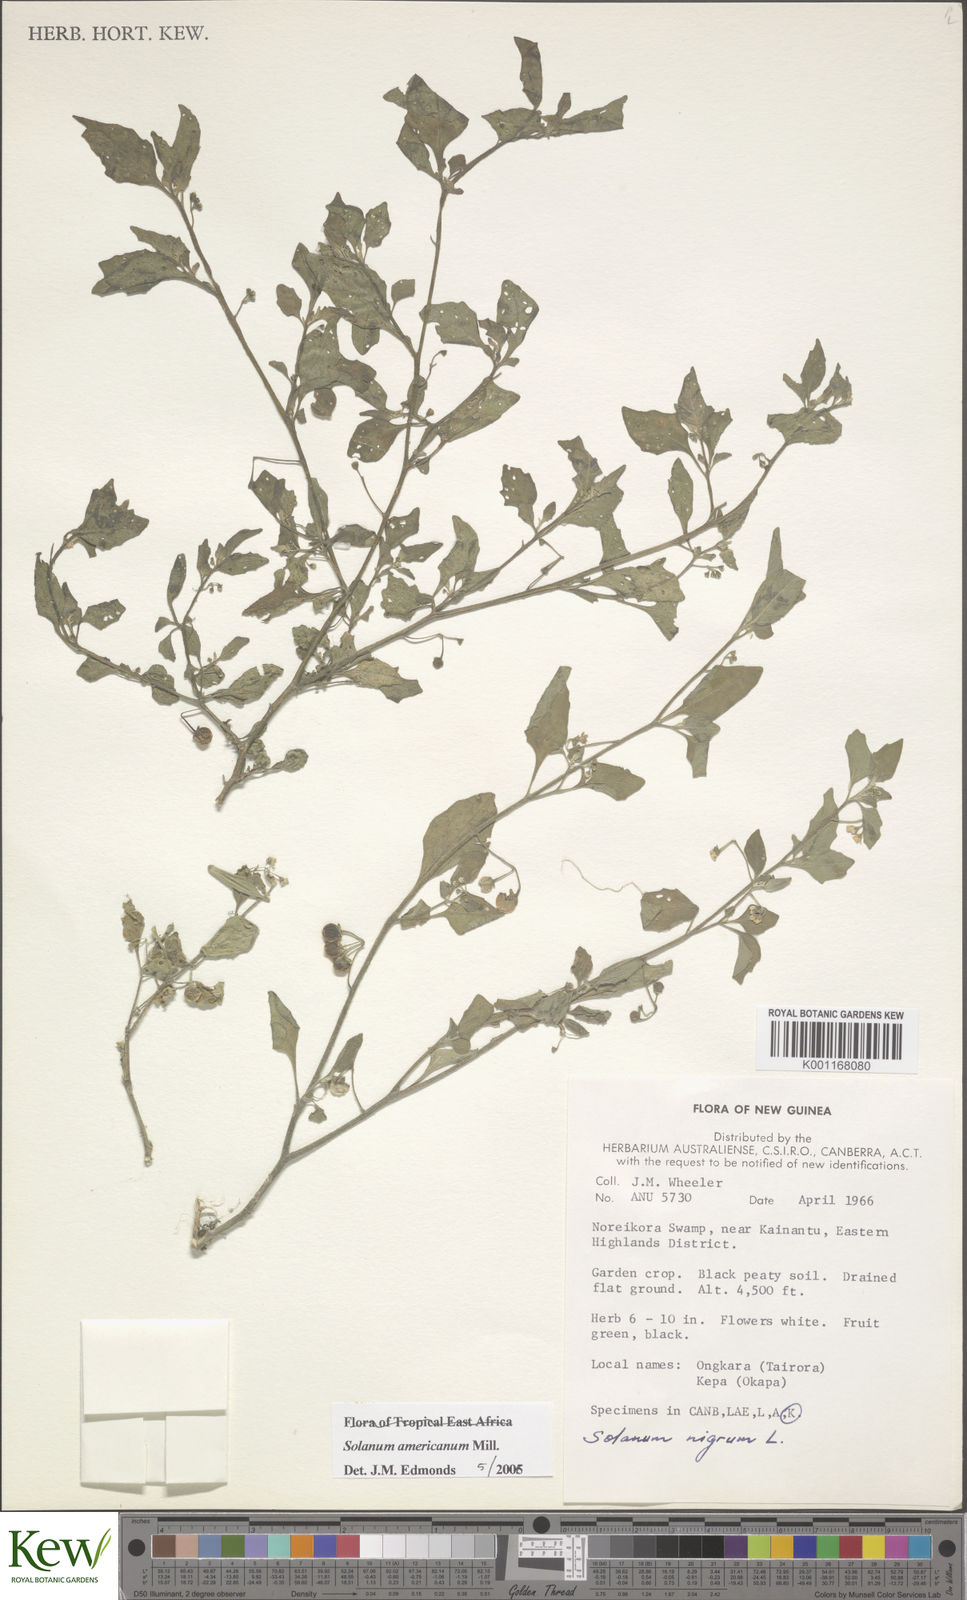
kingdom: Plantae
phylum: Tracheophyta
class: Magnoliopsida
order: Solanales
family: Solanaceae
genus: Solanum
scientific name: Solanum americanum
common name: American black nightshade
